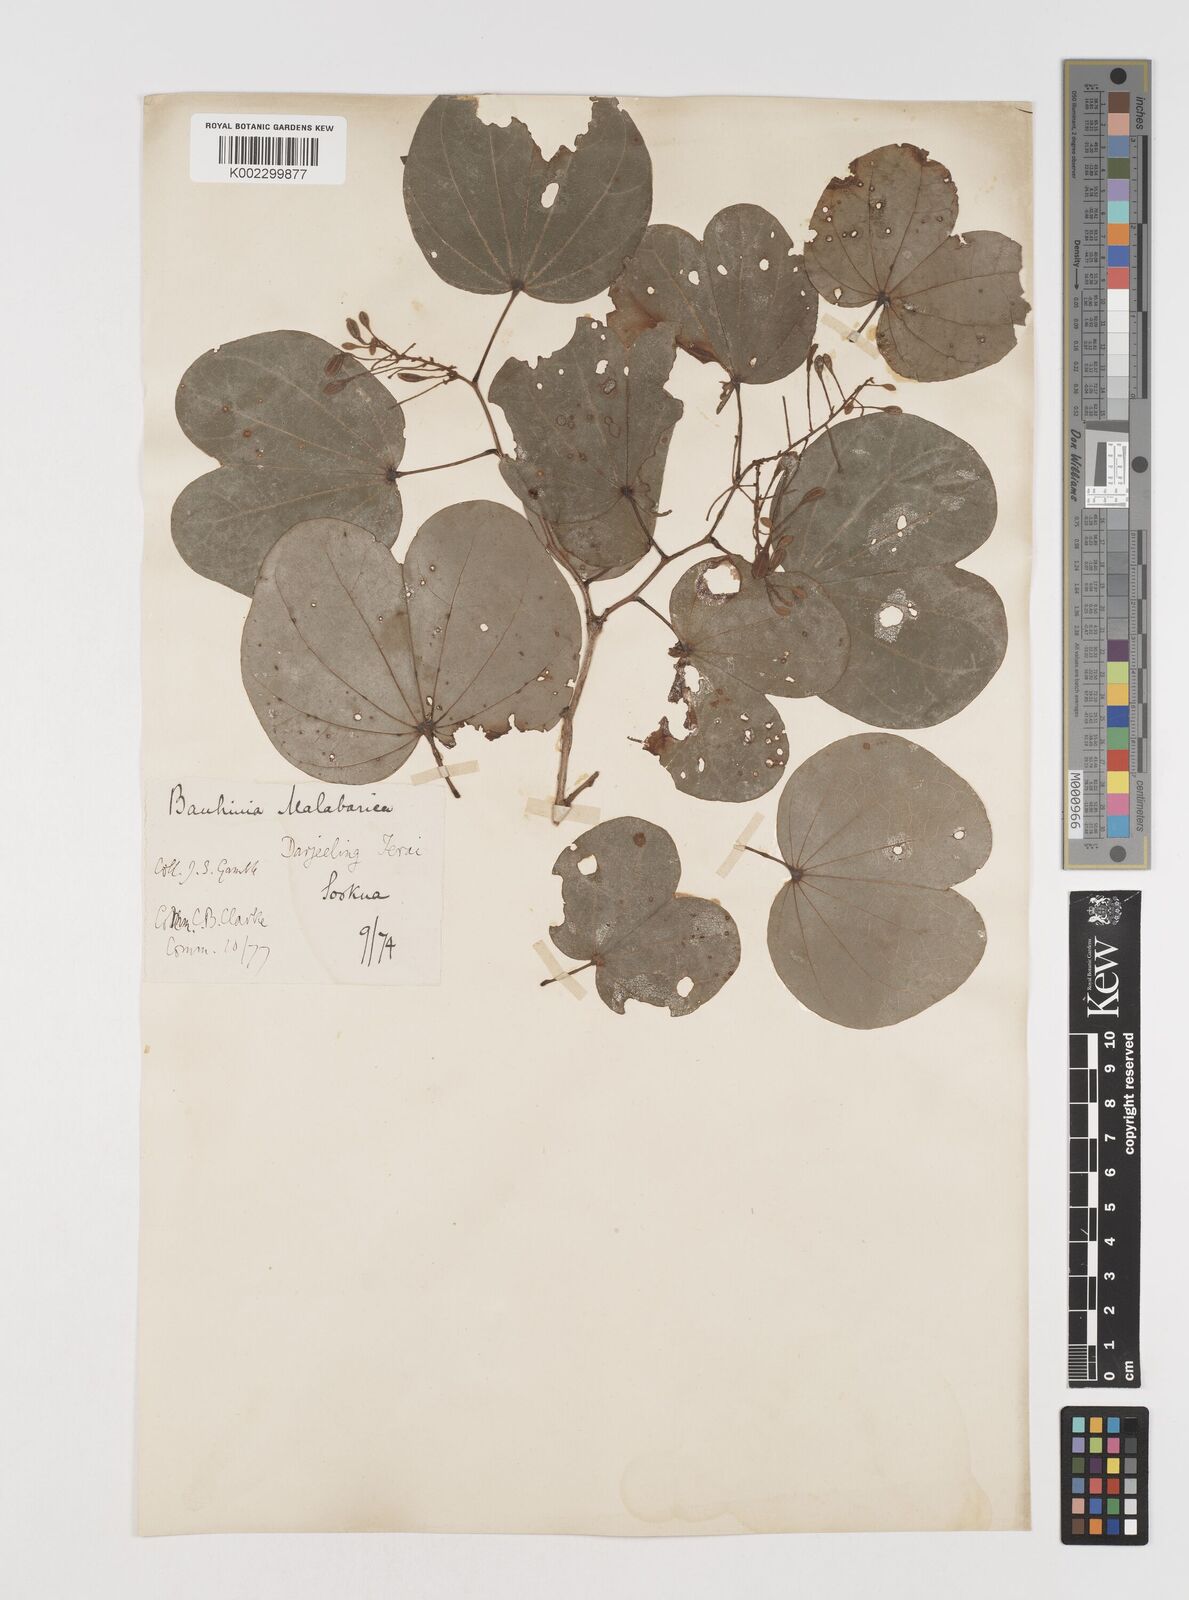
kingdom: Plantae
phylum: Tracheophyta
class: Magnoliopsida
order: Fabales
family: Fabaceae
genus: Piliostigma
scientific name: Piliostigma malabaricum
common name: Malabar bauhinia
